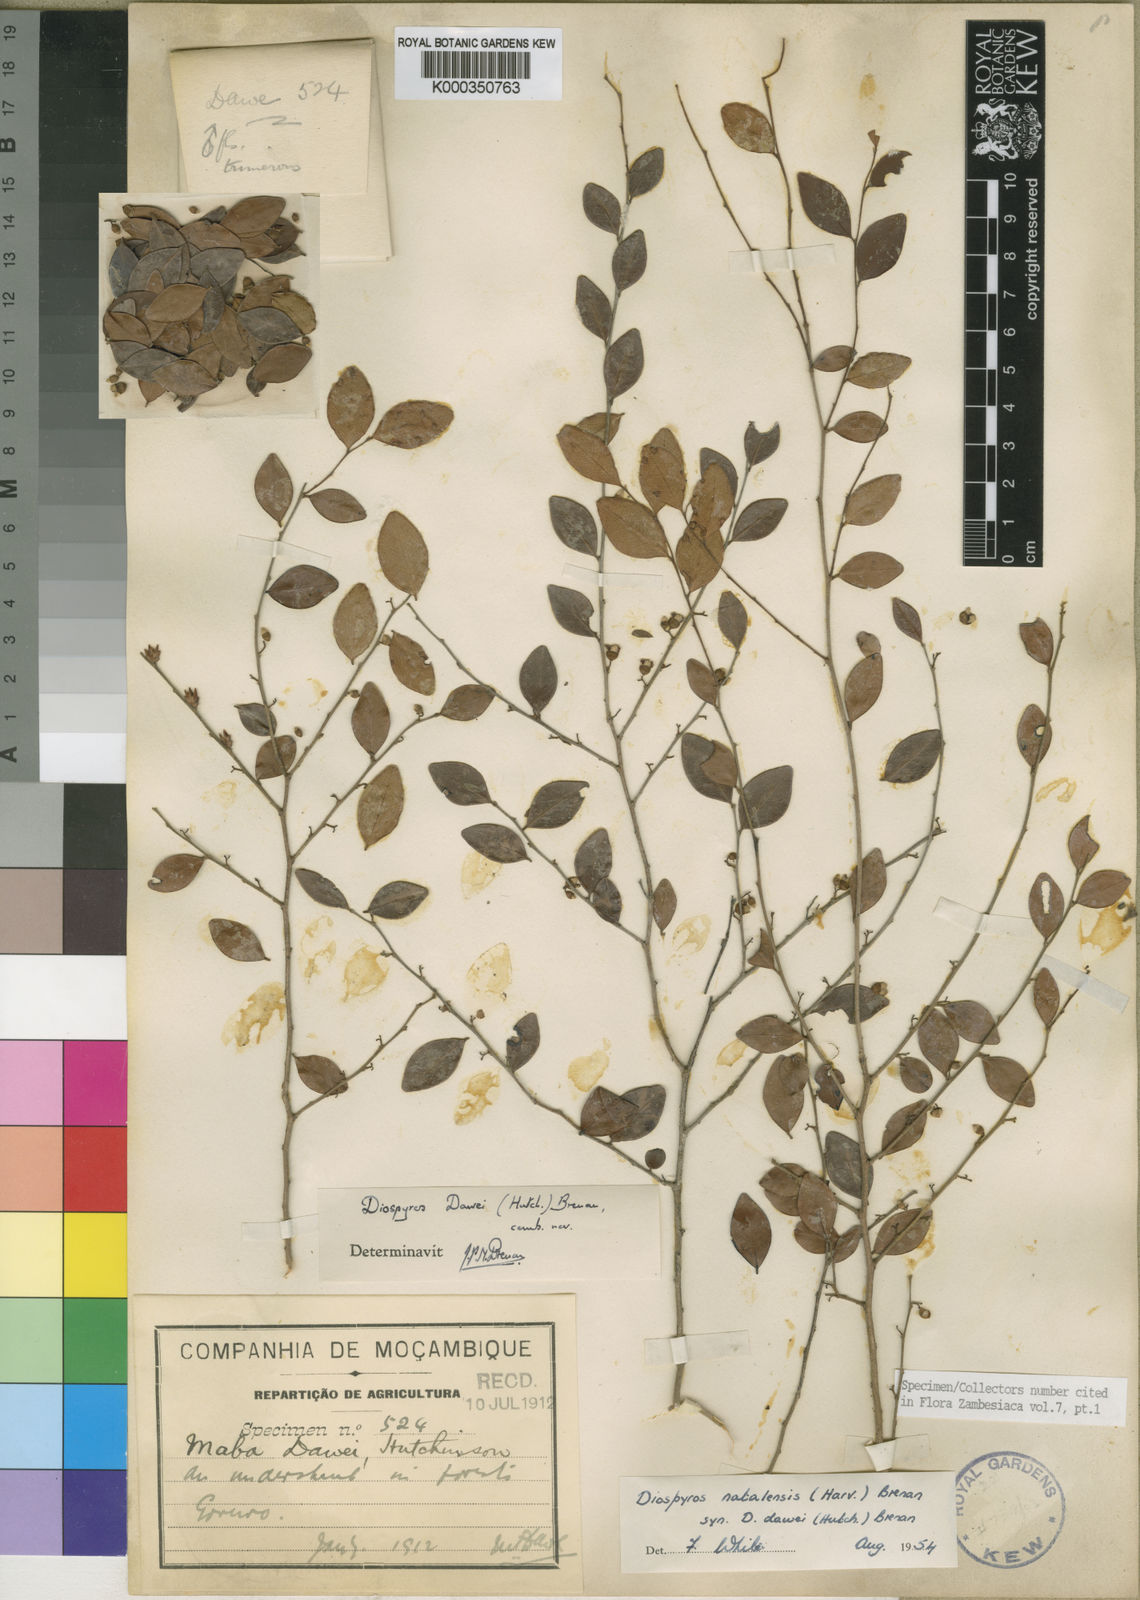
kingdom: Plantae
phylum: Tracheophyta
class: Magnoliopsida
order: Ericales
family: Ebenaceae
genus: Diospyros
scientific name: Diospyros natalensis
